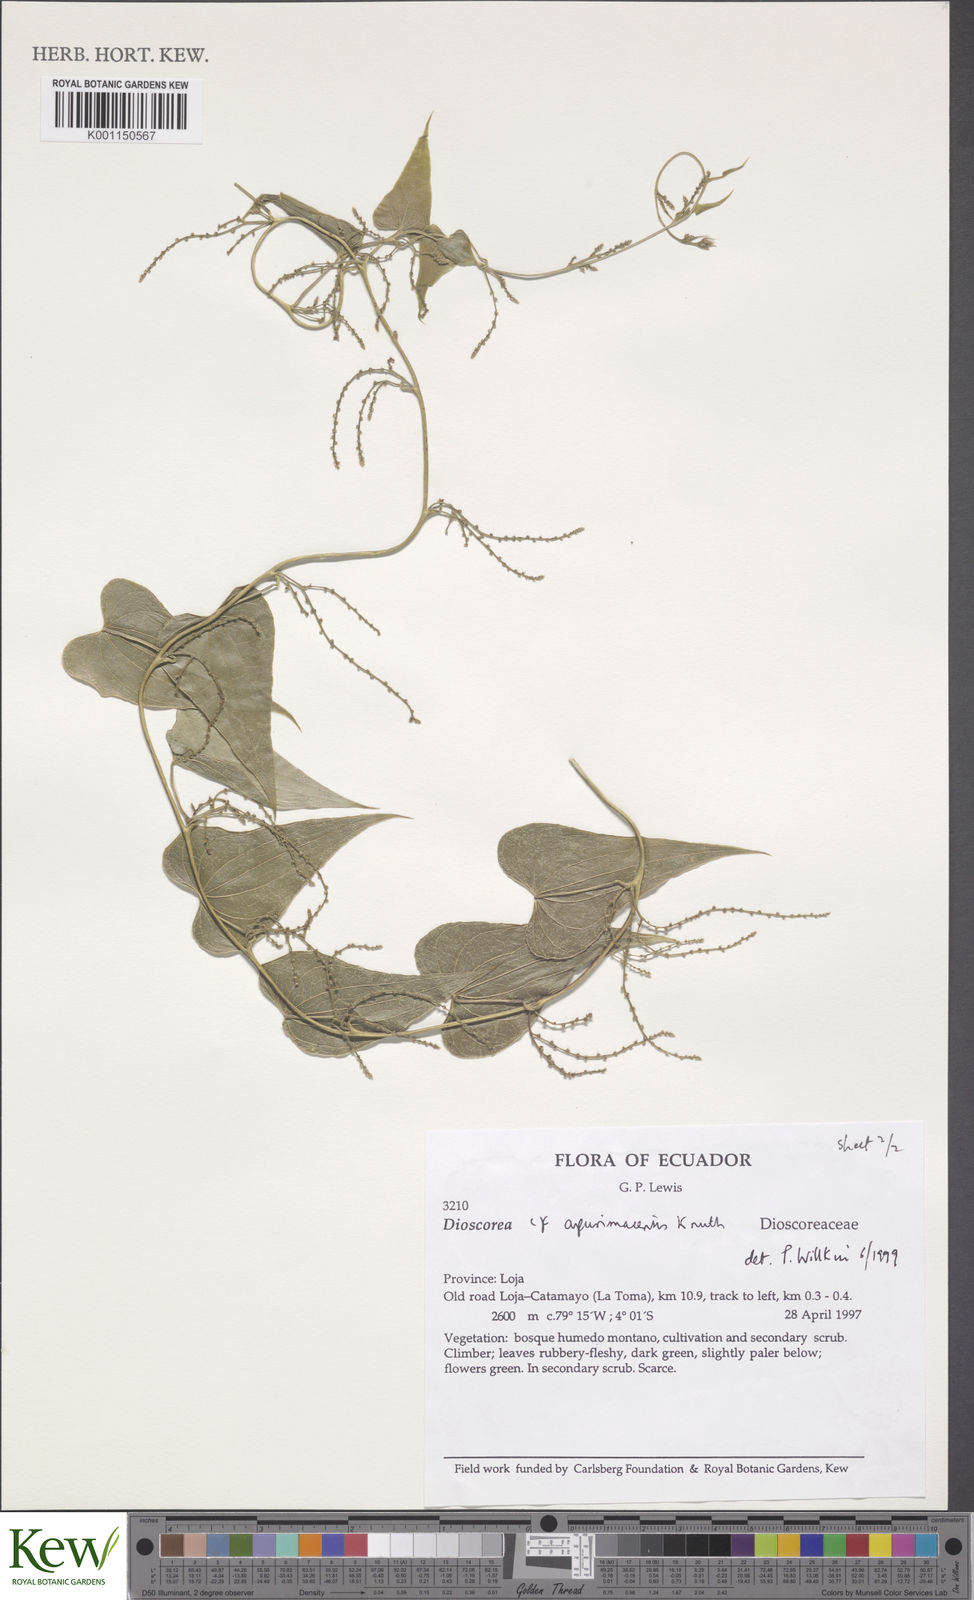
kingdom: Plantae
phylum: Tracheophyta
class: Liliopsida
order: Dioscoreales
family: Dioscoreaceae
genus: Dioscorea
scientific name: Dioscorea acanthogene
